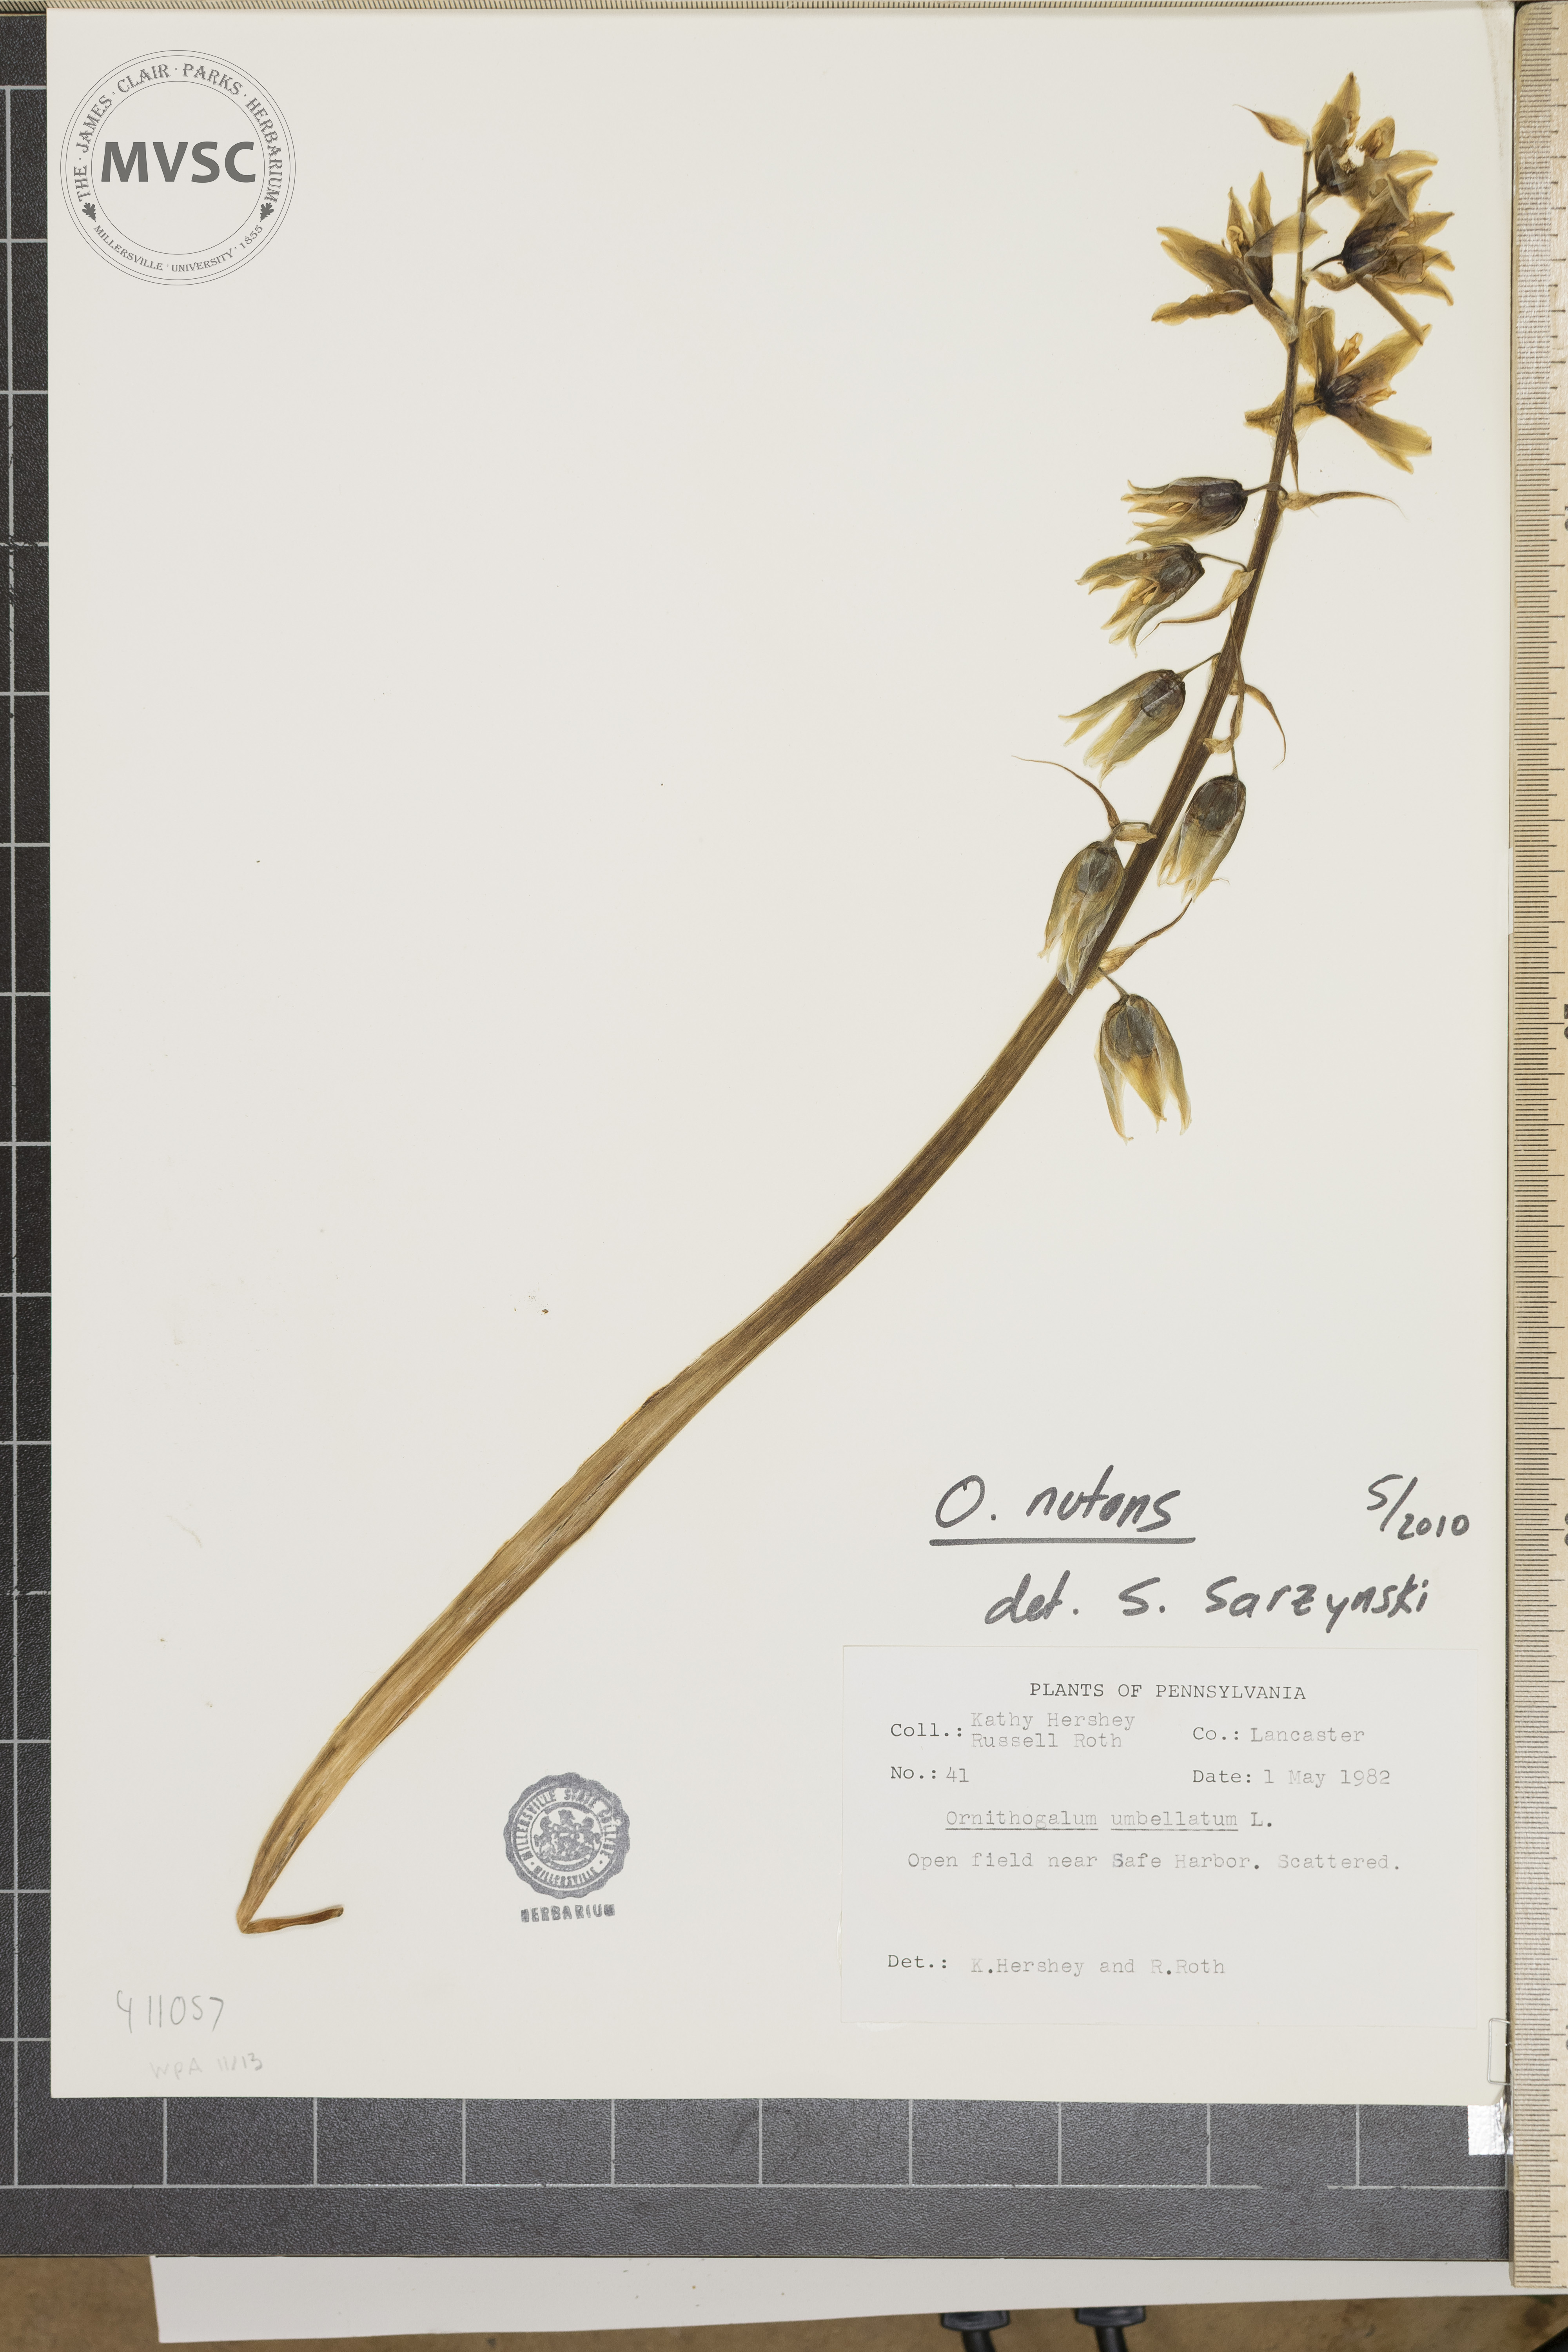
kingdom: Plantae
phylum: Tracheophyta
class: Liliopsida
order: Asparagales
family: Asparagaceae
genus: Ornithogalum
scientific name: Ornithogalum nutans
